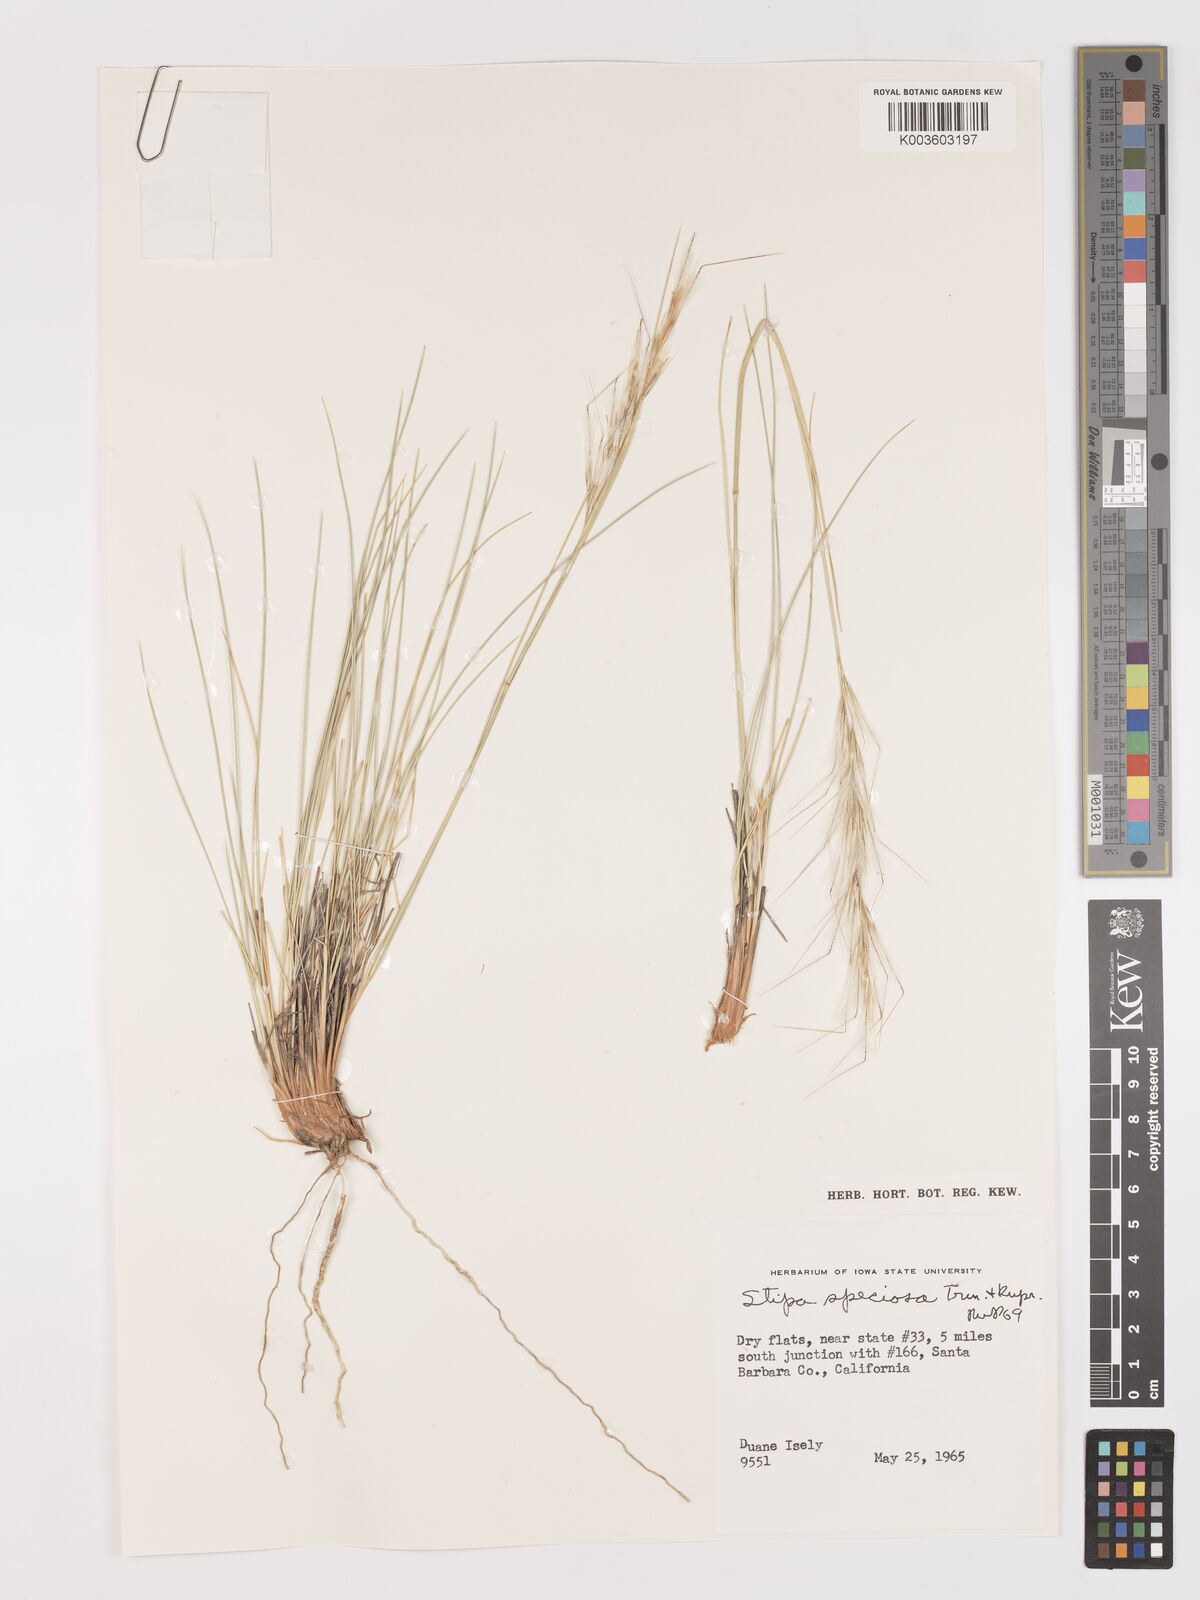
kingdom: Plantae
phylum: Tracheophyta
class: Liliopsida
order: Poales
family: Poaceae
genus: Pappostipa
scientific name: Pappostipa speciosa
